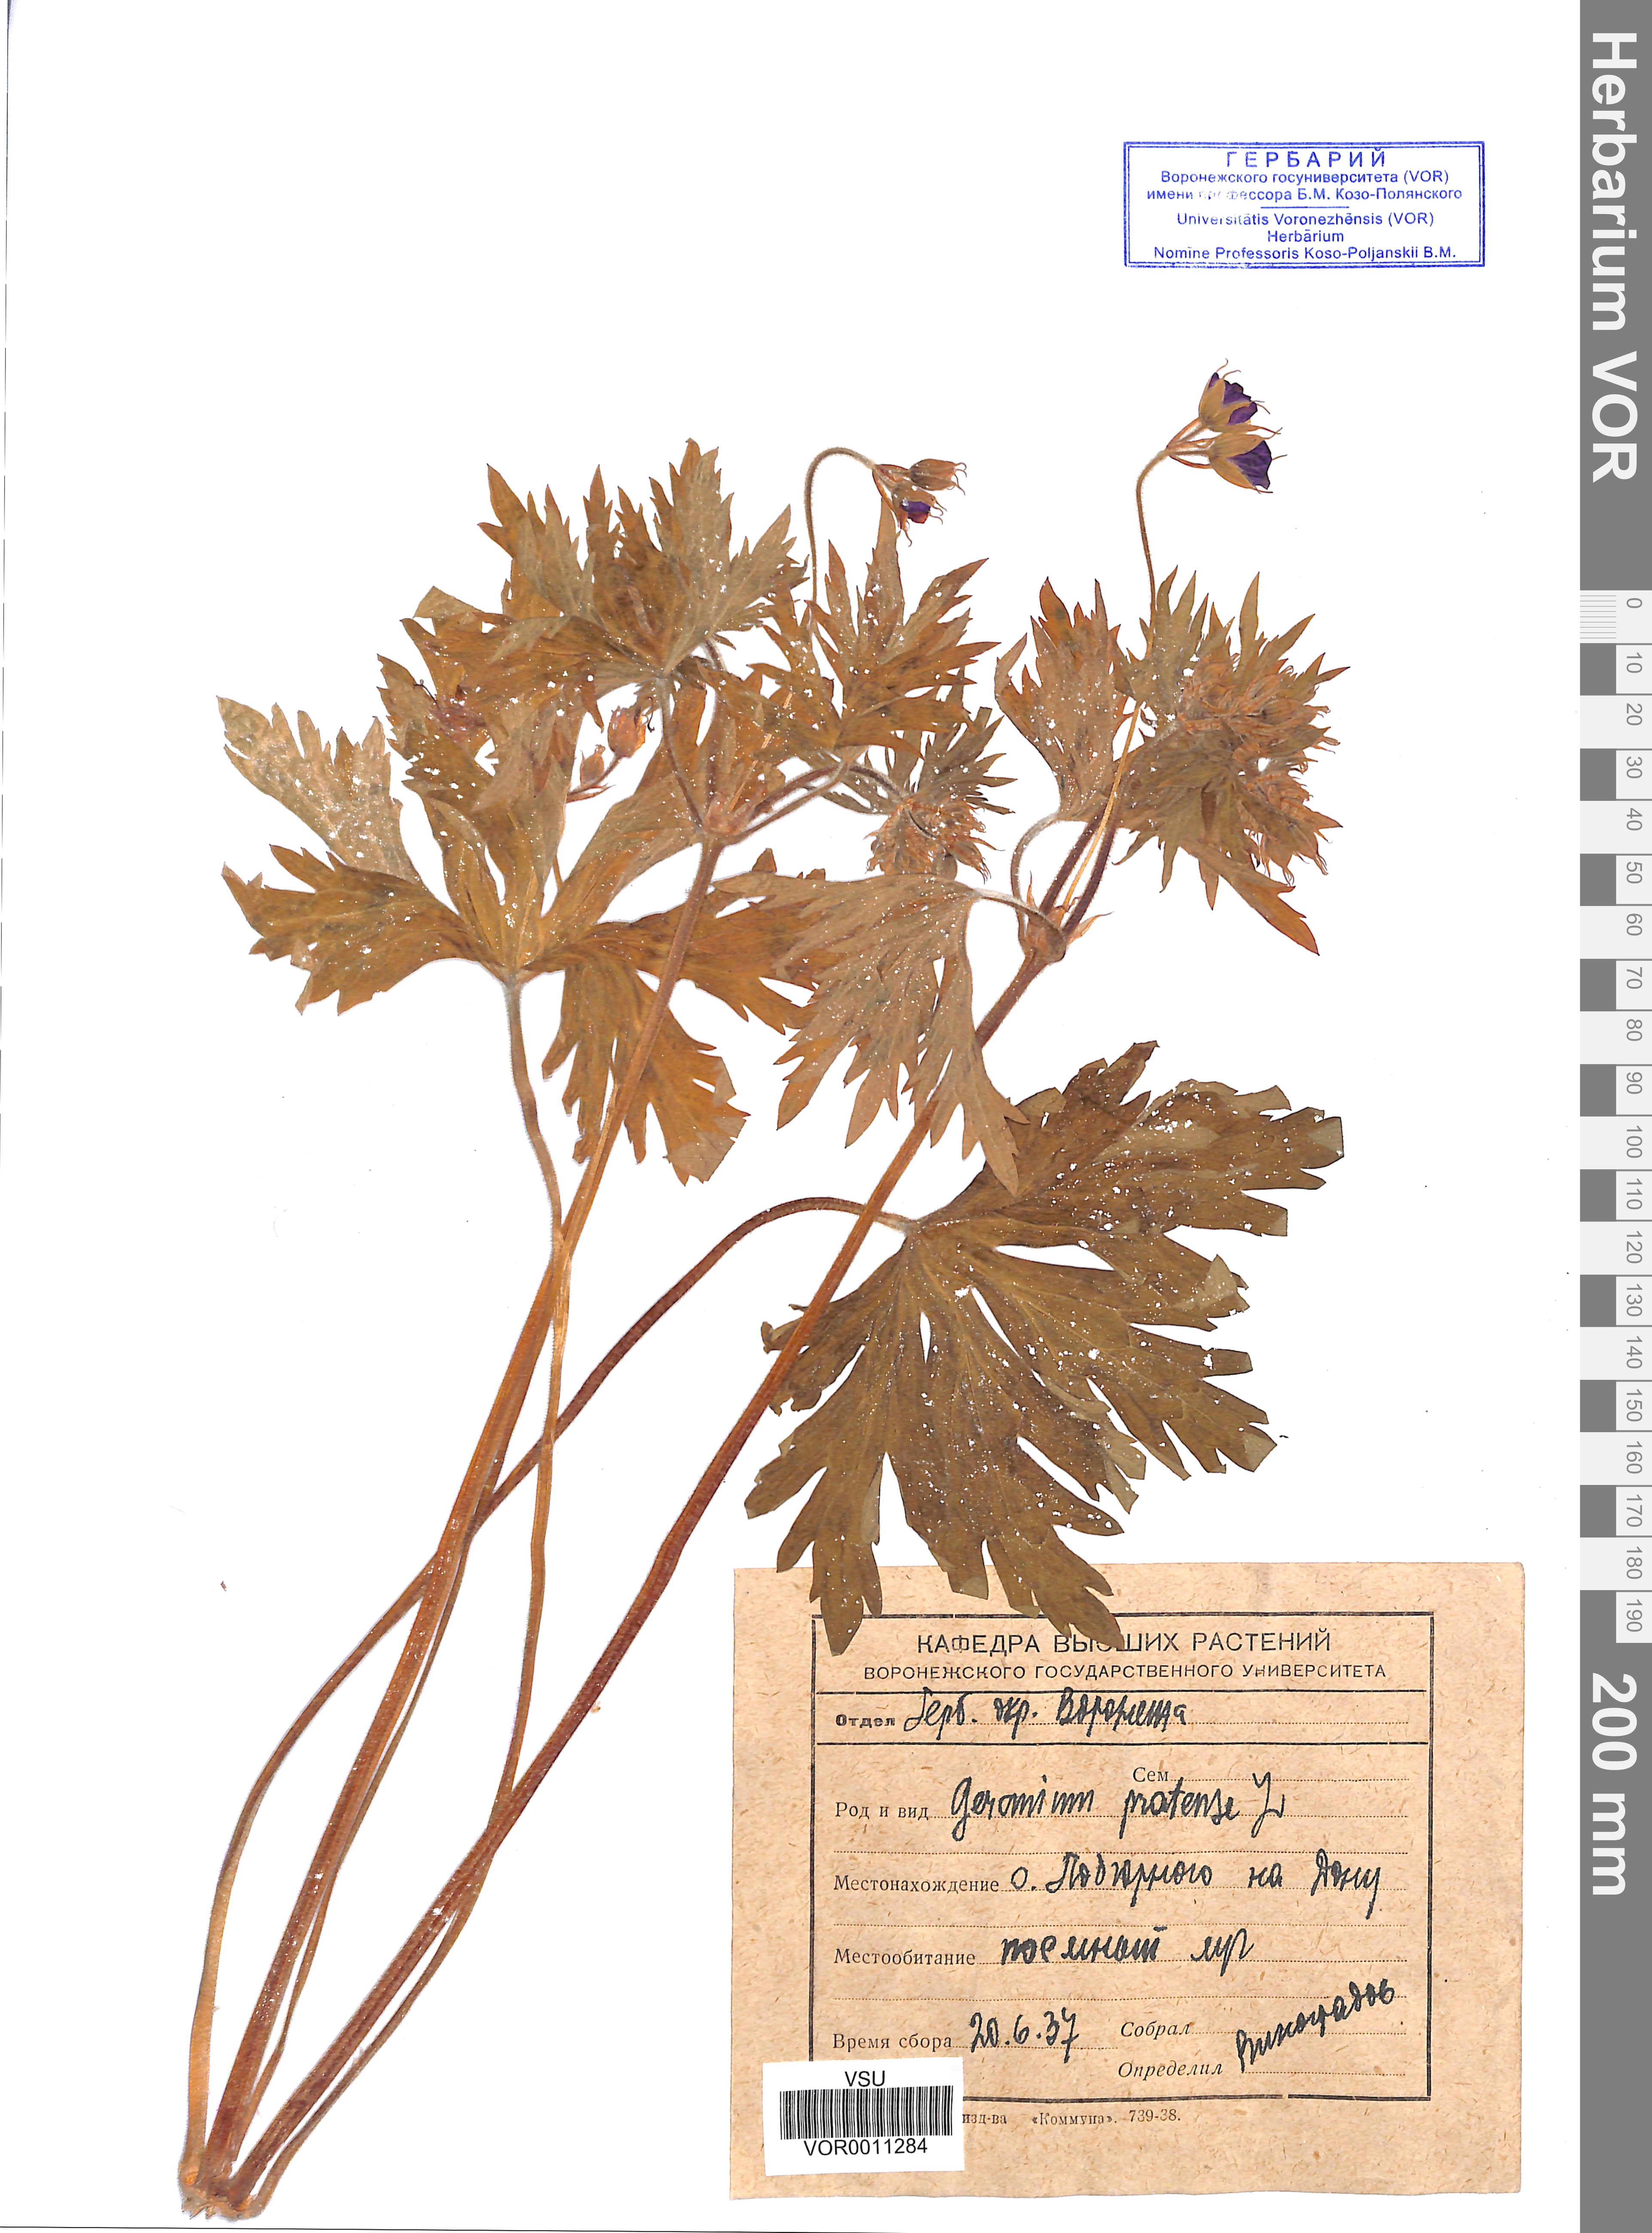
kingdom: Plantae
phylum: Tracheophyta
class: Magnoliopsida
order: Geraniales
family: Geraniaceae
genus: Geranium
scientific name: Geranium pratense
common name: Meadow crane's-bill
